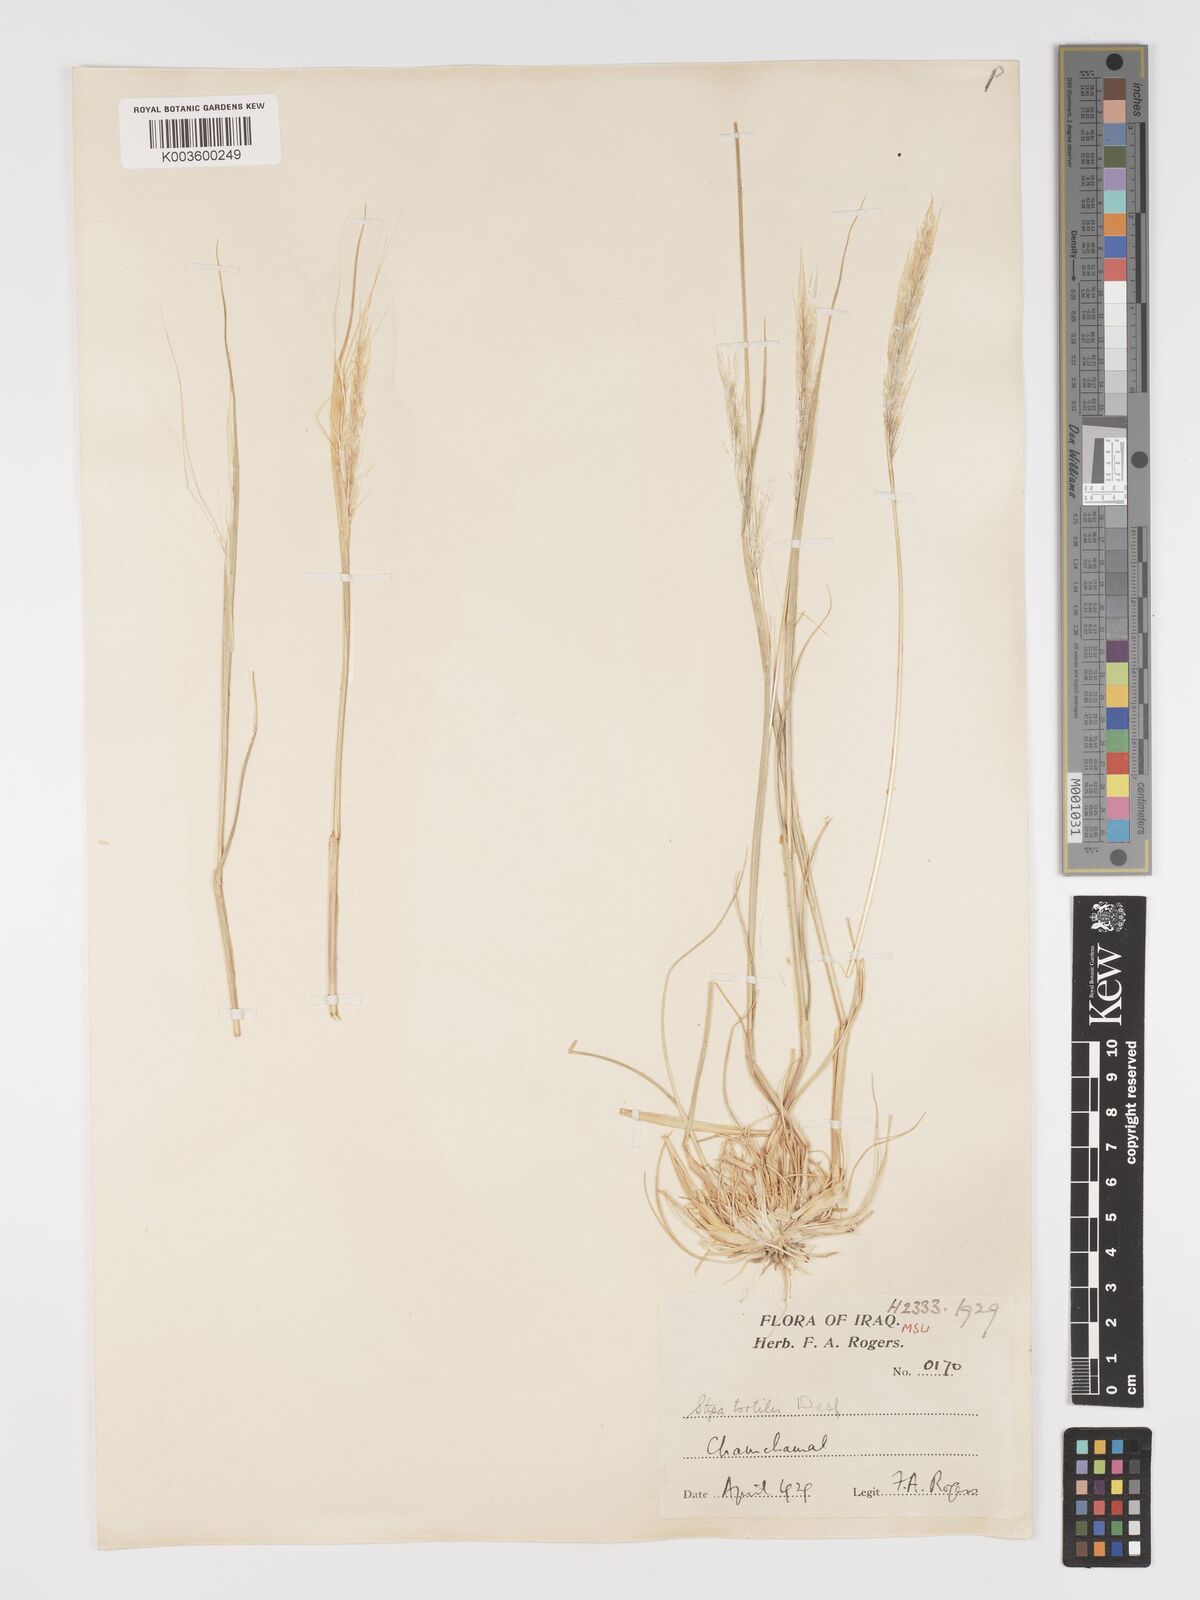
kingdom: Plantae
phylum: Tracheophyta
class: Liliopsida
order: Poales
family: Poaceae
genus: Stipellula
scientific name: Stipellula capensis
